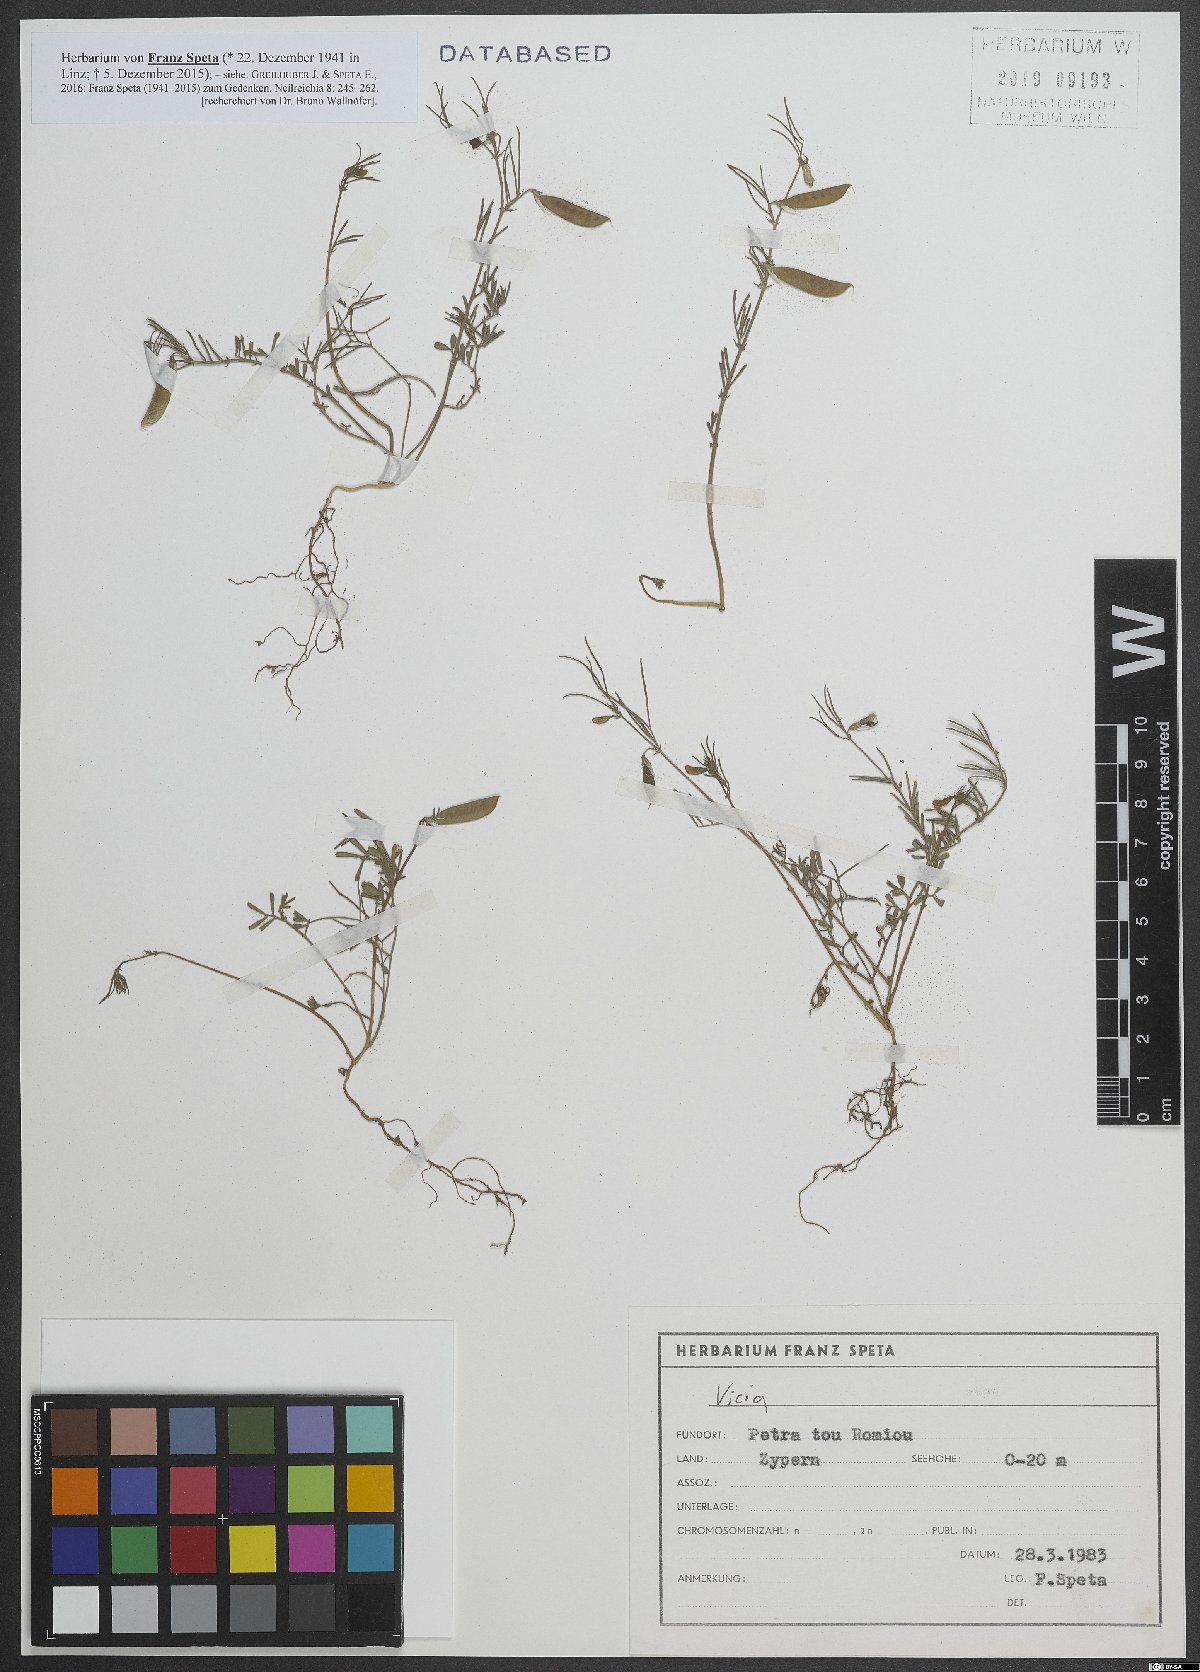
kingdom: Plantae
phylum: Tracheophyta
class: Magnoliopsida
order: Fabales
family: Fabaceae
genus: Vicia
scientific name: Vicia
